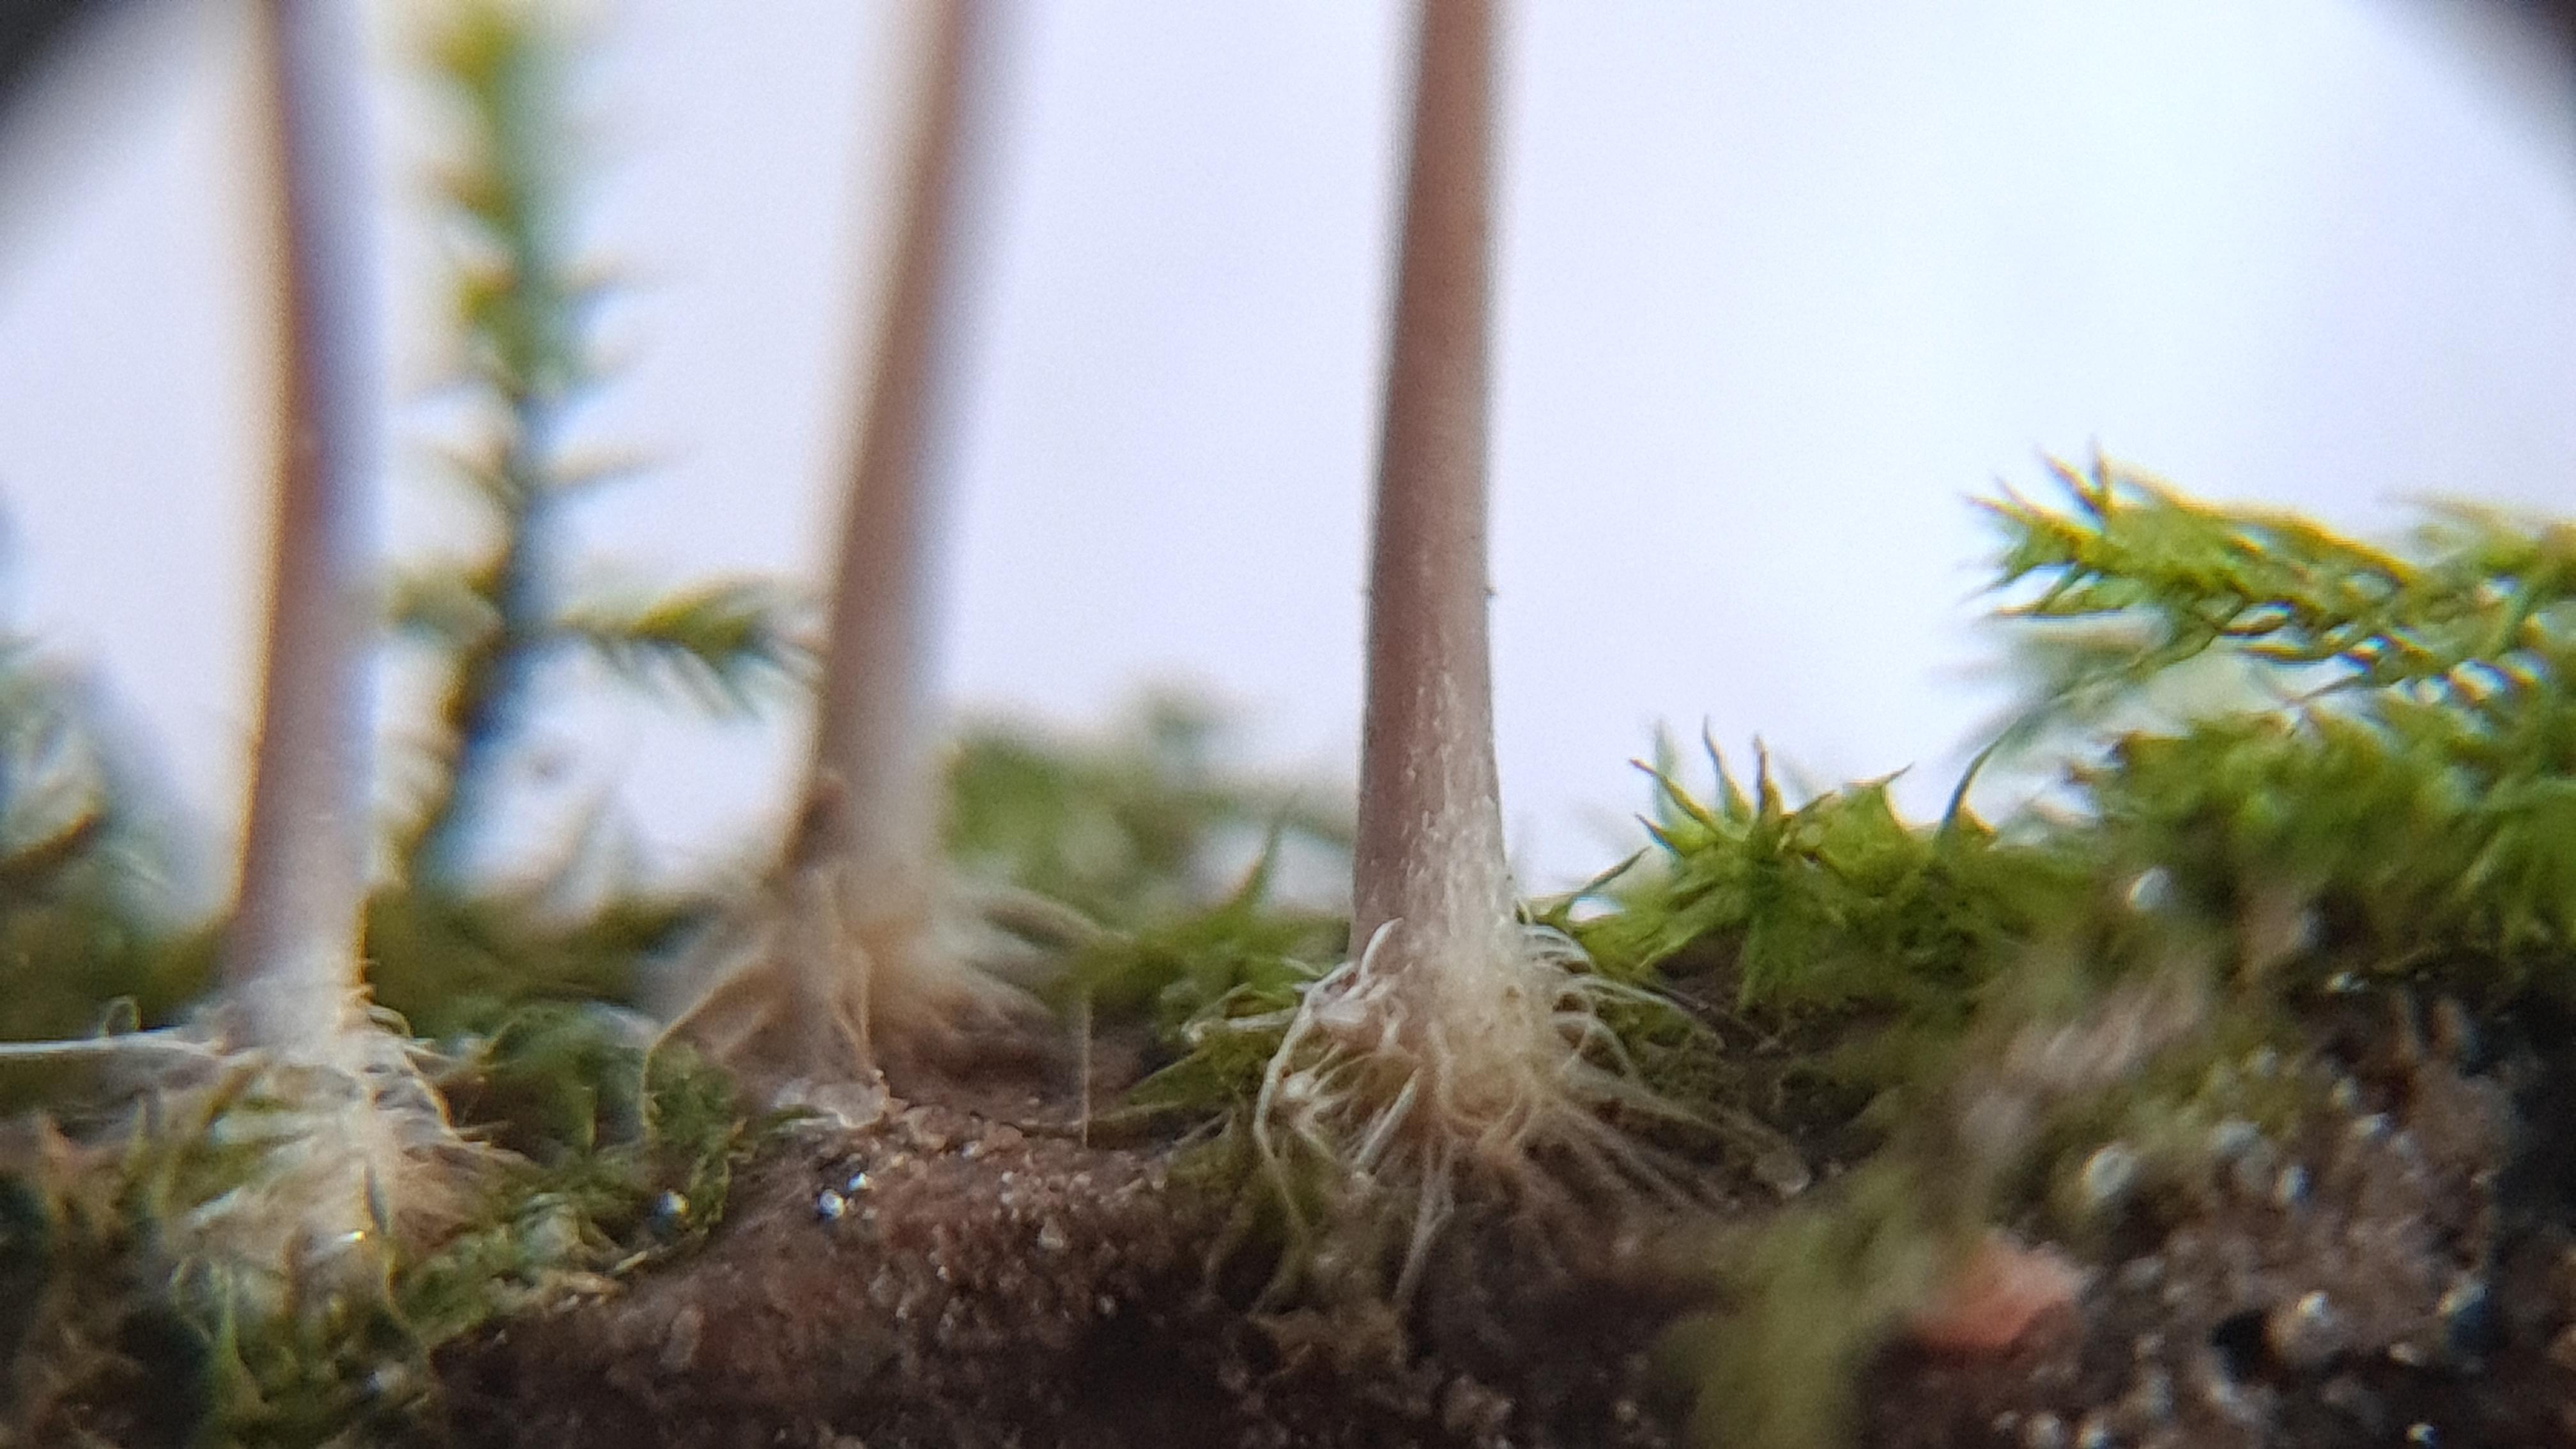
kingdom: Fungi
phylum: Basidiomycota
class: Agaricomycetes
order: Agaricales
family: Mycenaceae
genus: Mycena
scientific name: Mycena
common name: huesvamp
